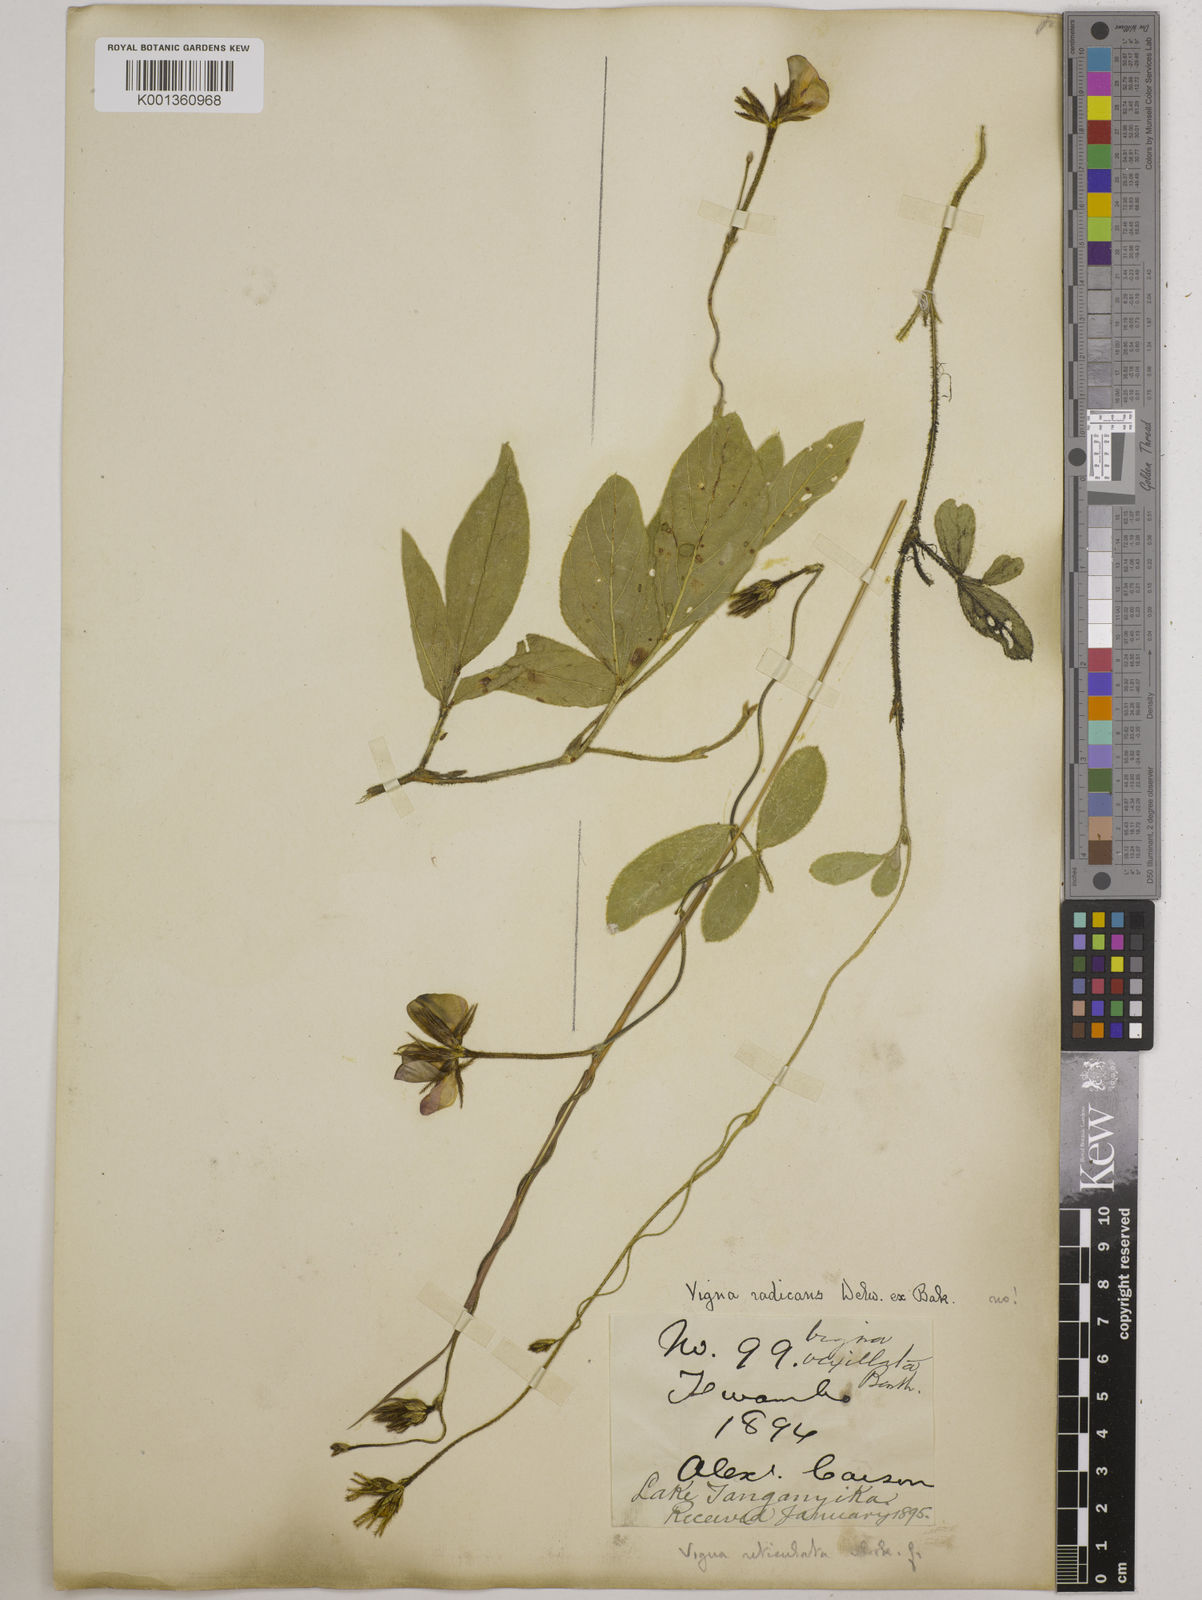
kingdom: Plantae
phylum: Tracheophyta
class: Magnoliopsida
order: Fabales
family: Fabaceae
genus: Vigna
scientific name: Vigna reticulata
